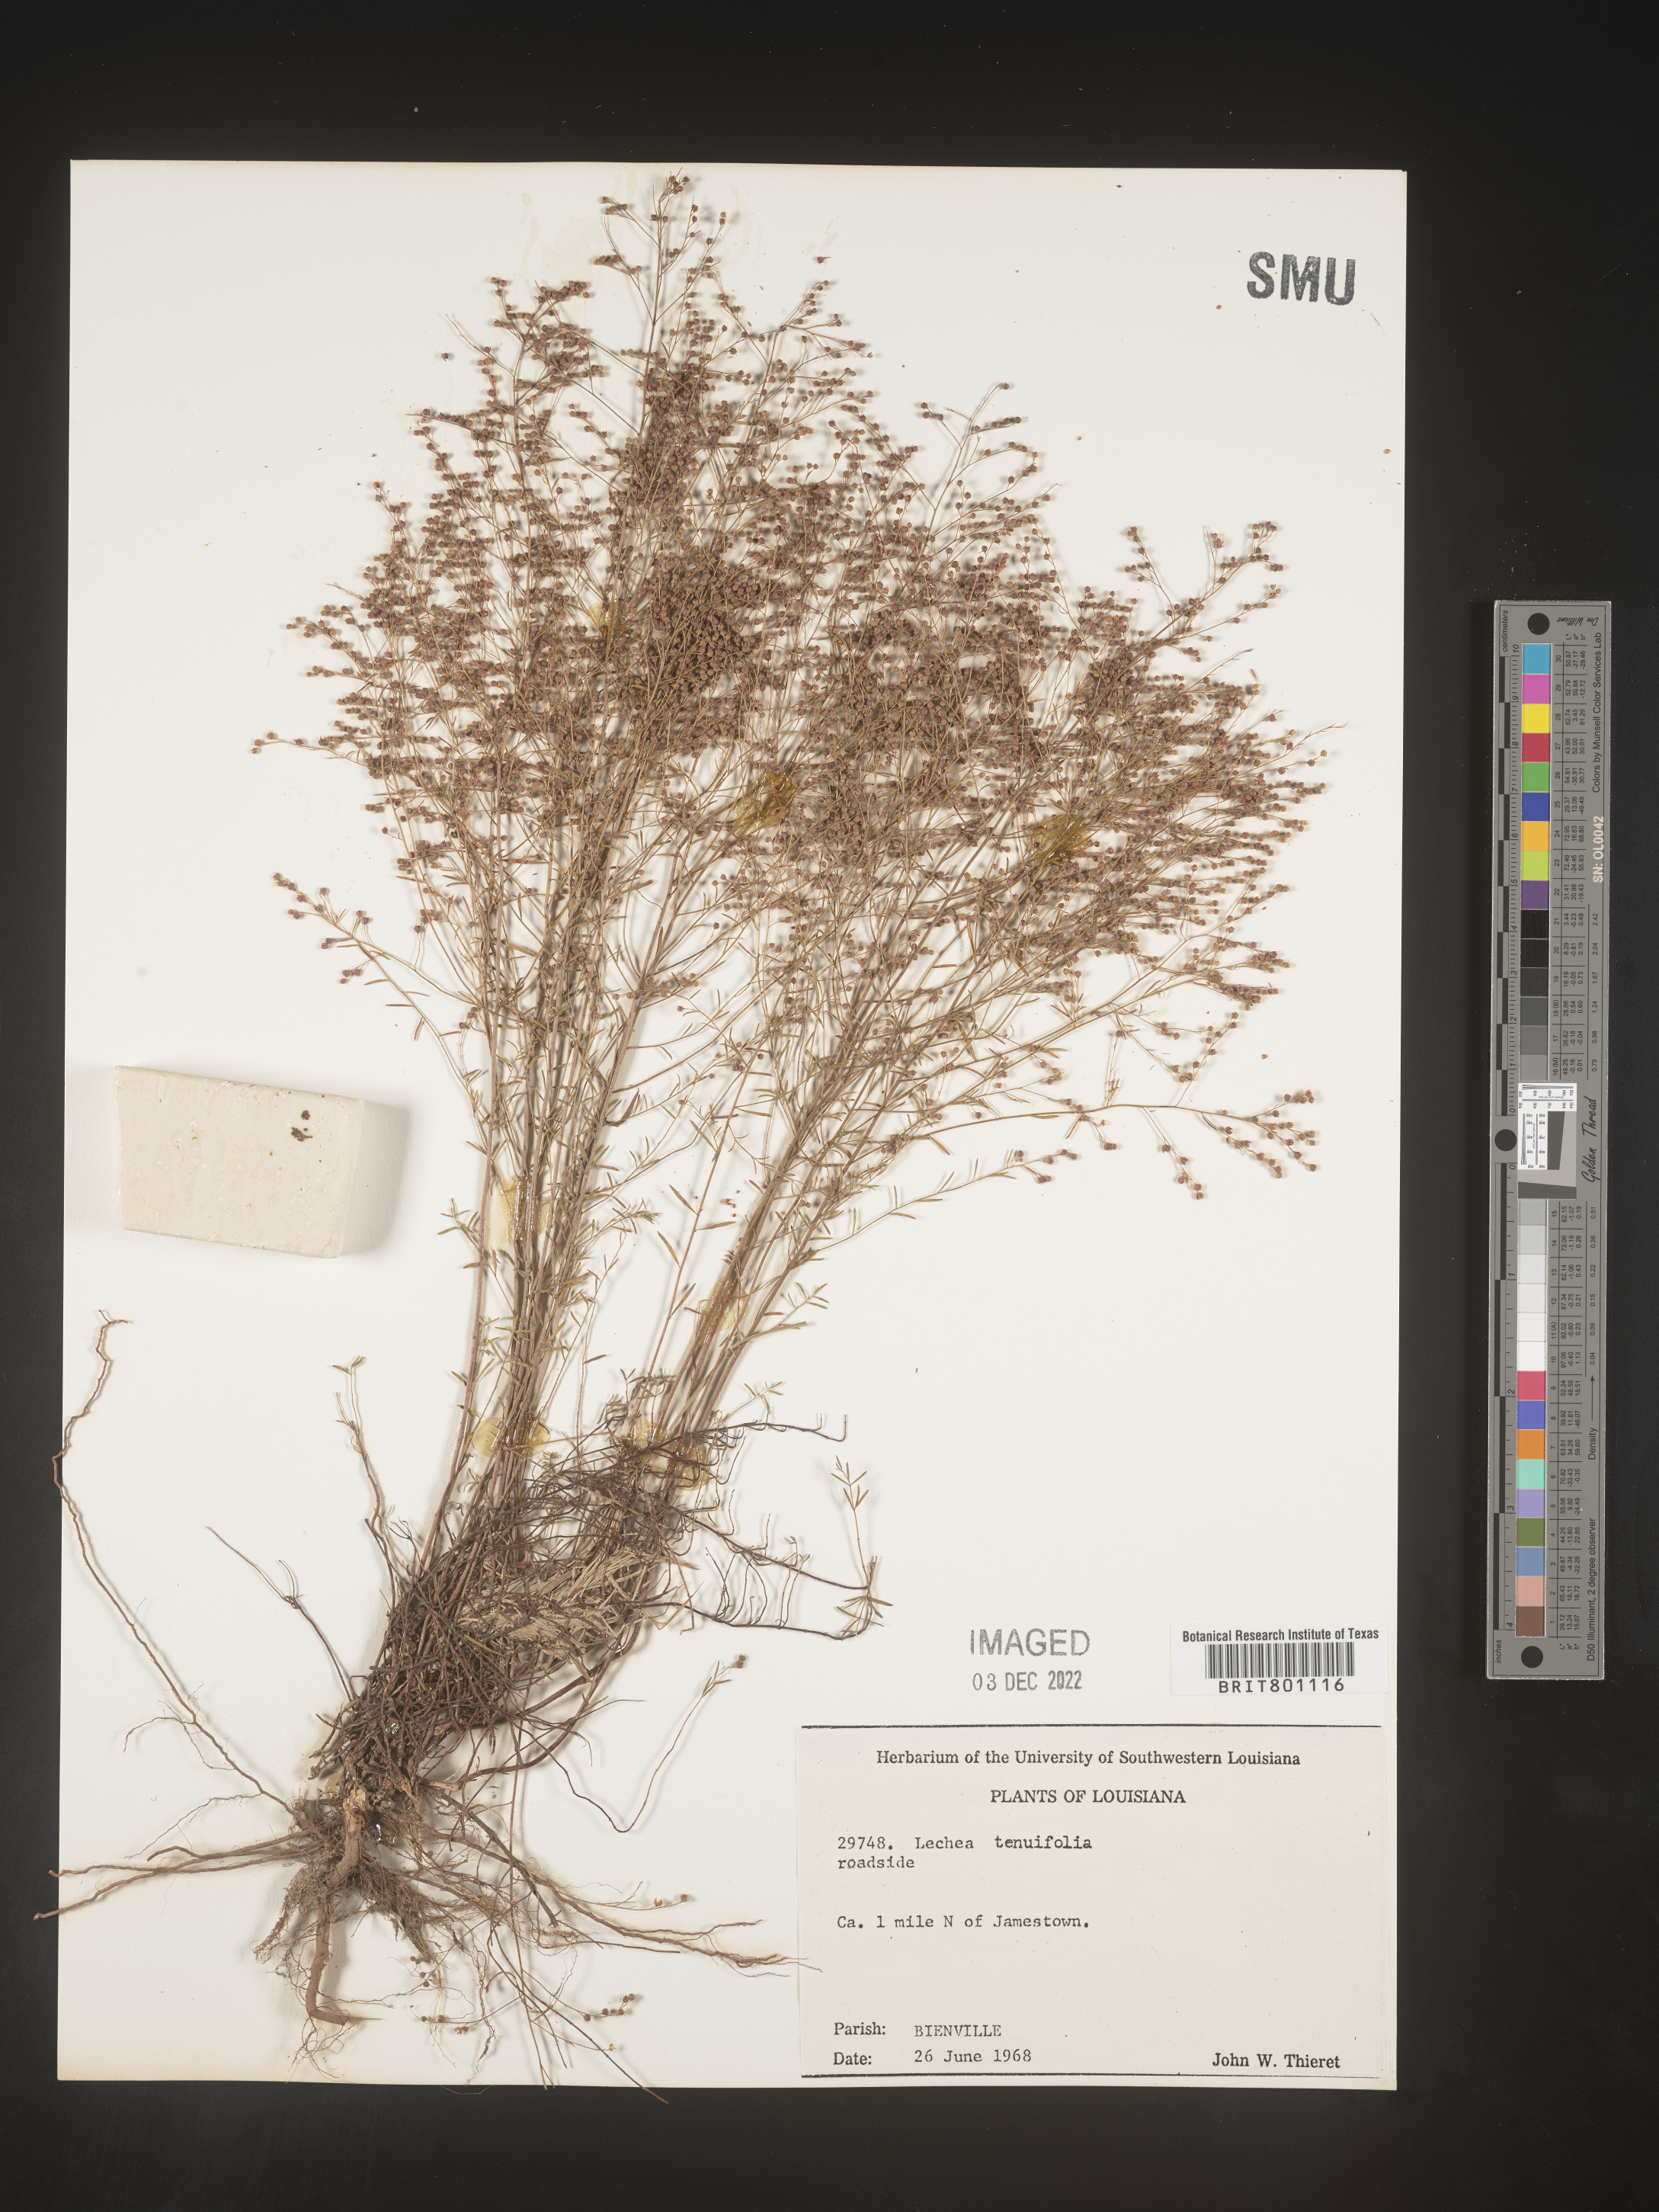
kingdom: Plantae
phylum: Tracheophyta
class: Magnoliopsida
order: Malvales
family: Cistaceae
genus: Lechea
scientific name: Lechea tenuifolia
